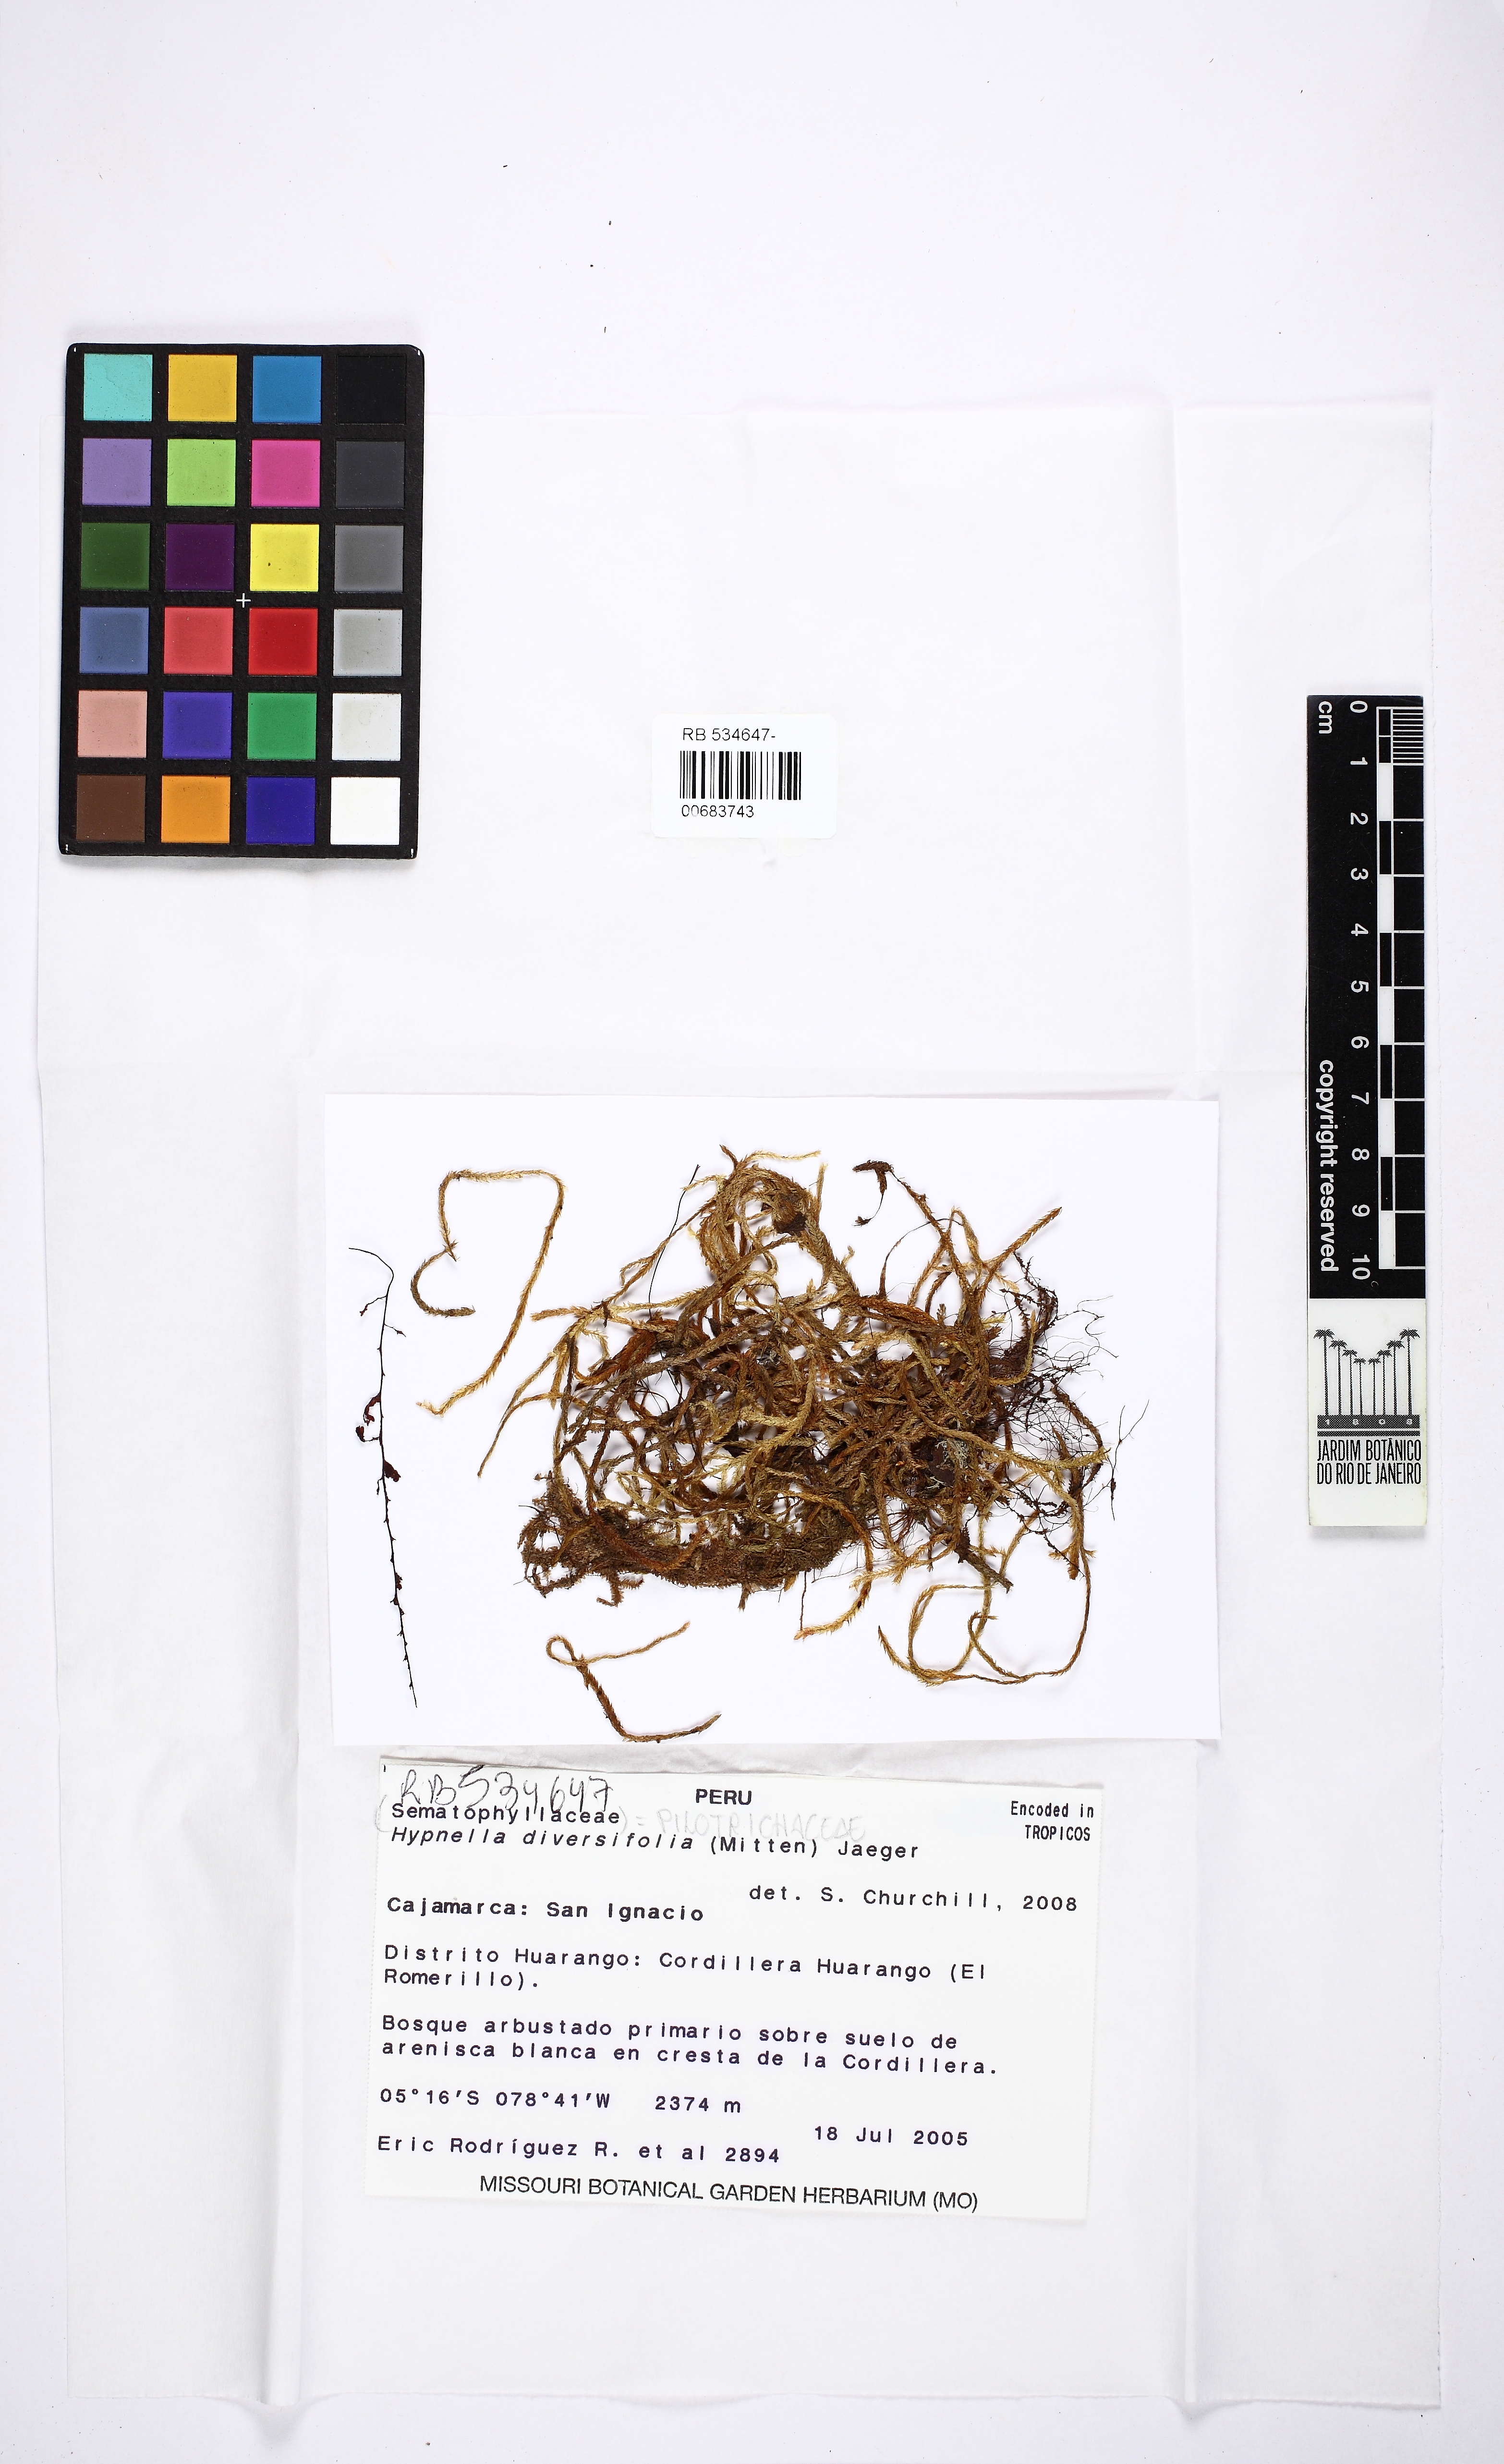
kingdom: Plantae
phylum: Bryophyta
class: Bryopsida
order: Hookeriales
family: Pilotrichaceae
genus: Neohypnella
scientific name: Neohypnella diversifolia
